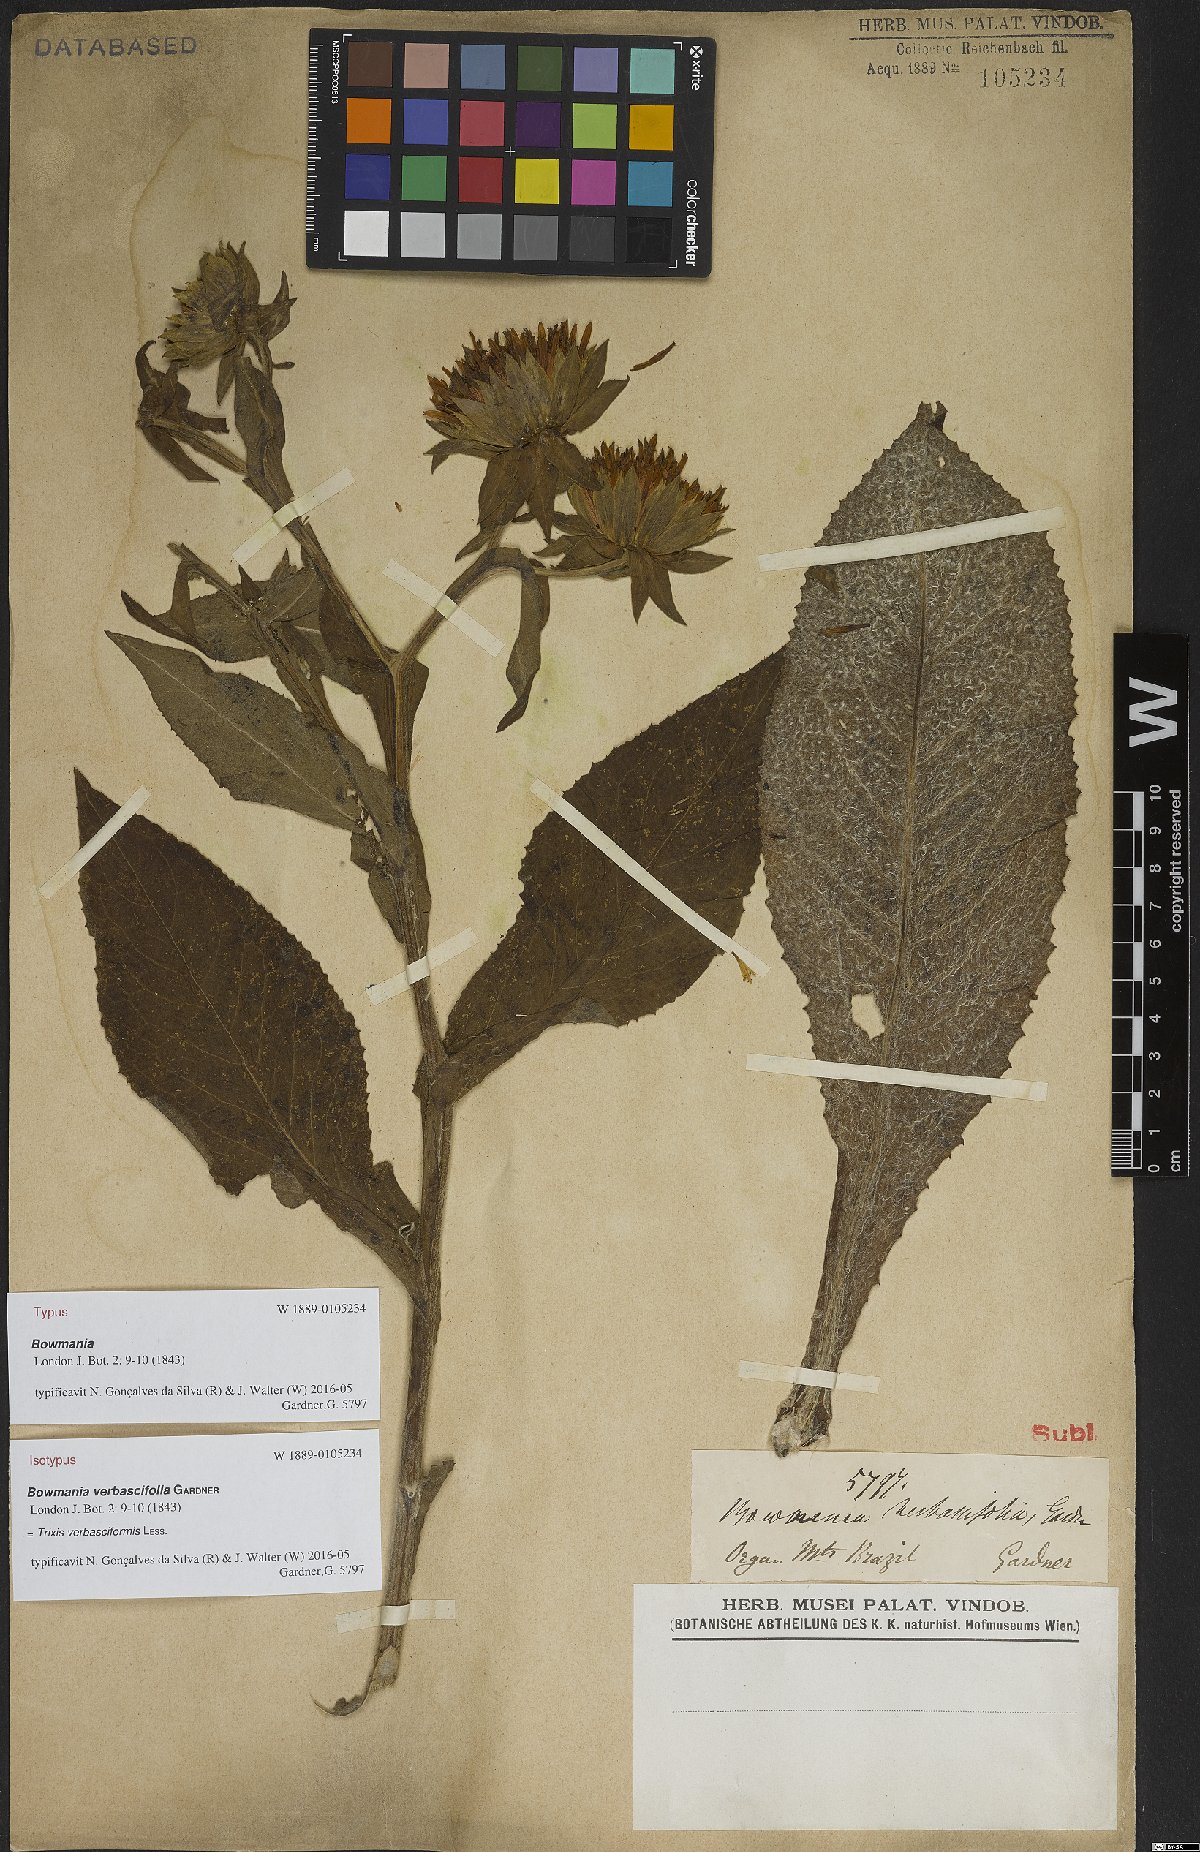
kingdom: Plantae
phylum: Tracheophyta
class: Magnoliopsida
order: Asterales
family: Asteraceae
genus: Trixis
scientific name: Trixis nobilis
